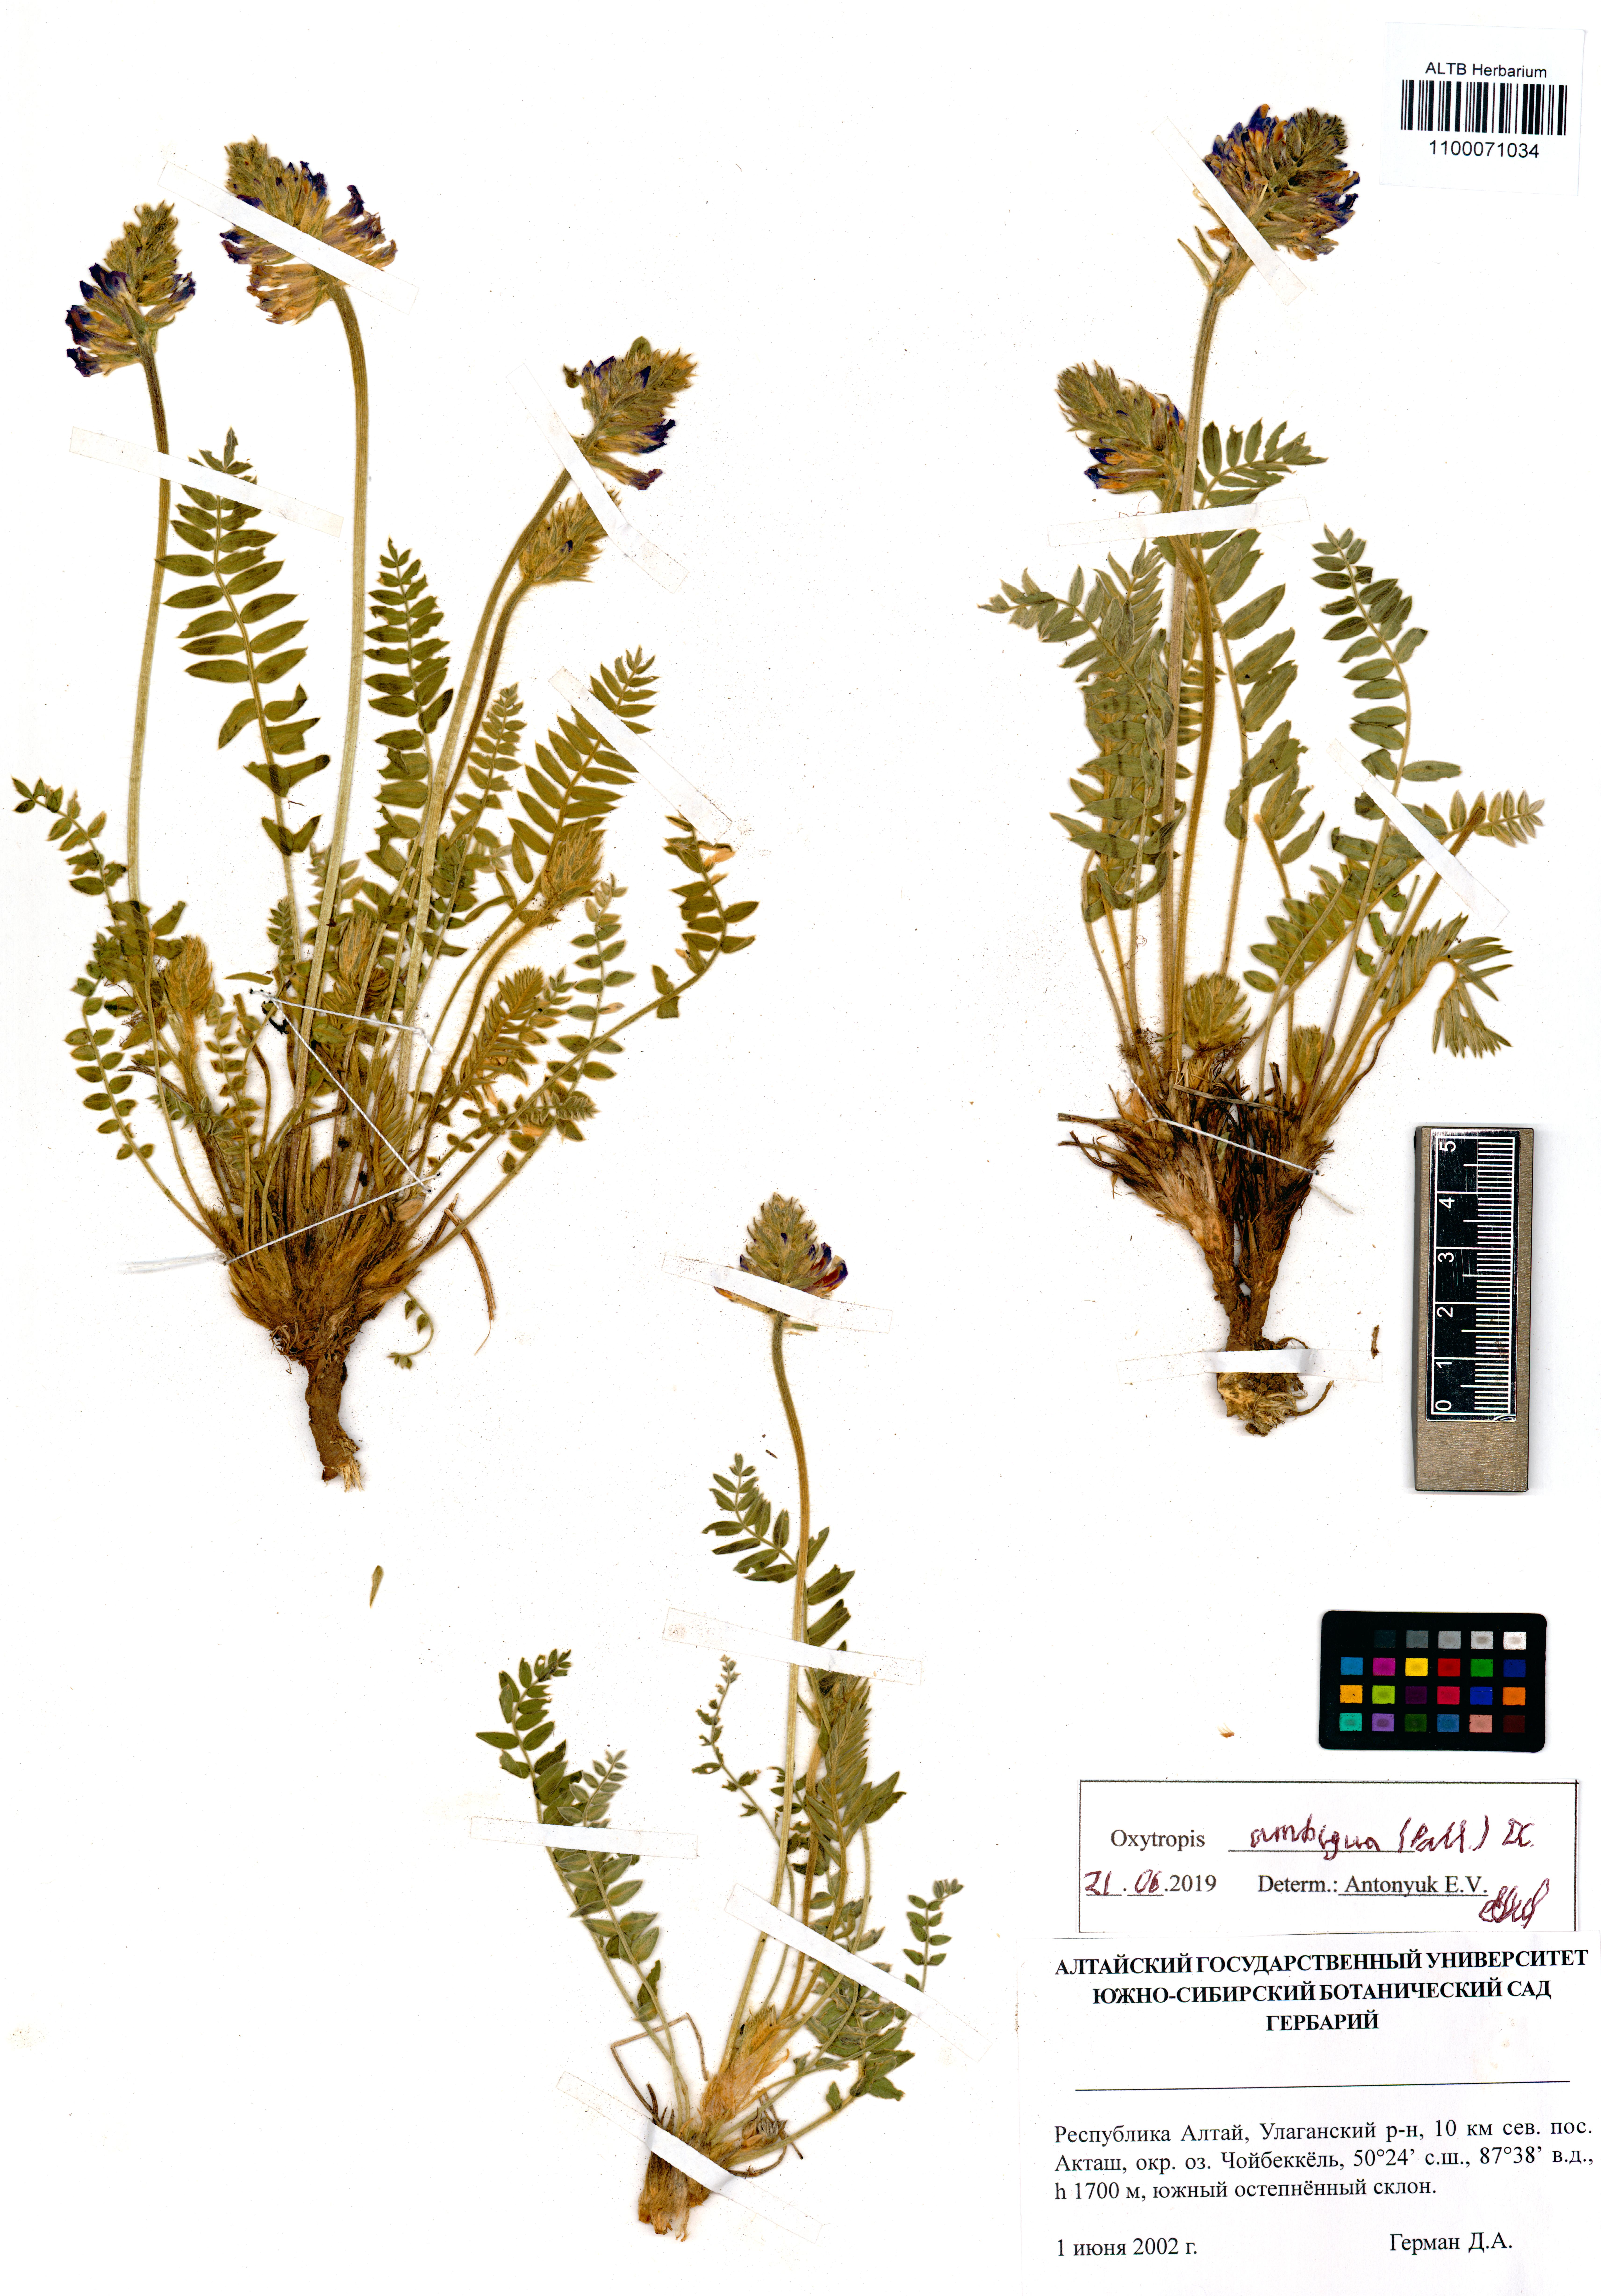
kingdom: Plantae
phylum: Tracheophyta
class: Magnoliopsida
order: Fabales
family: Fabaceae
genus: Oxytropis
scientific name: Oxytropis ambigua
